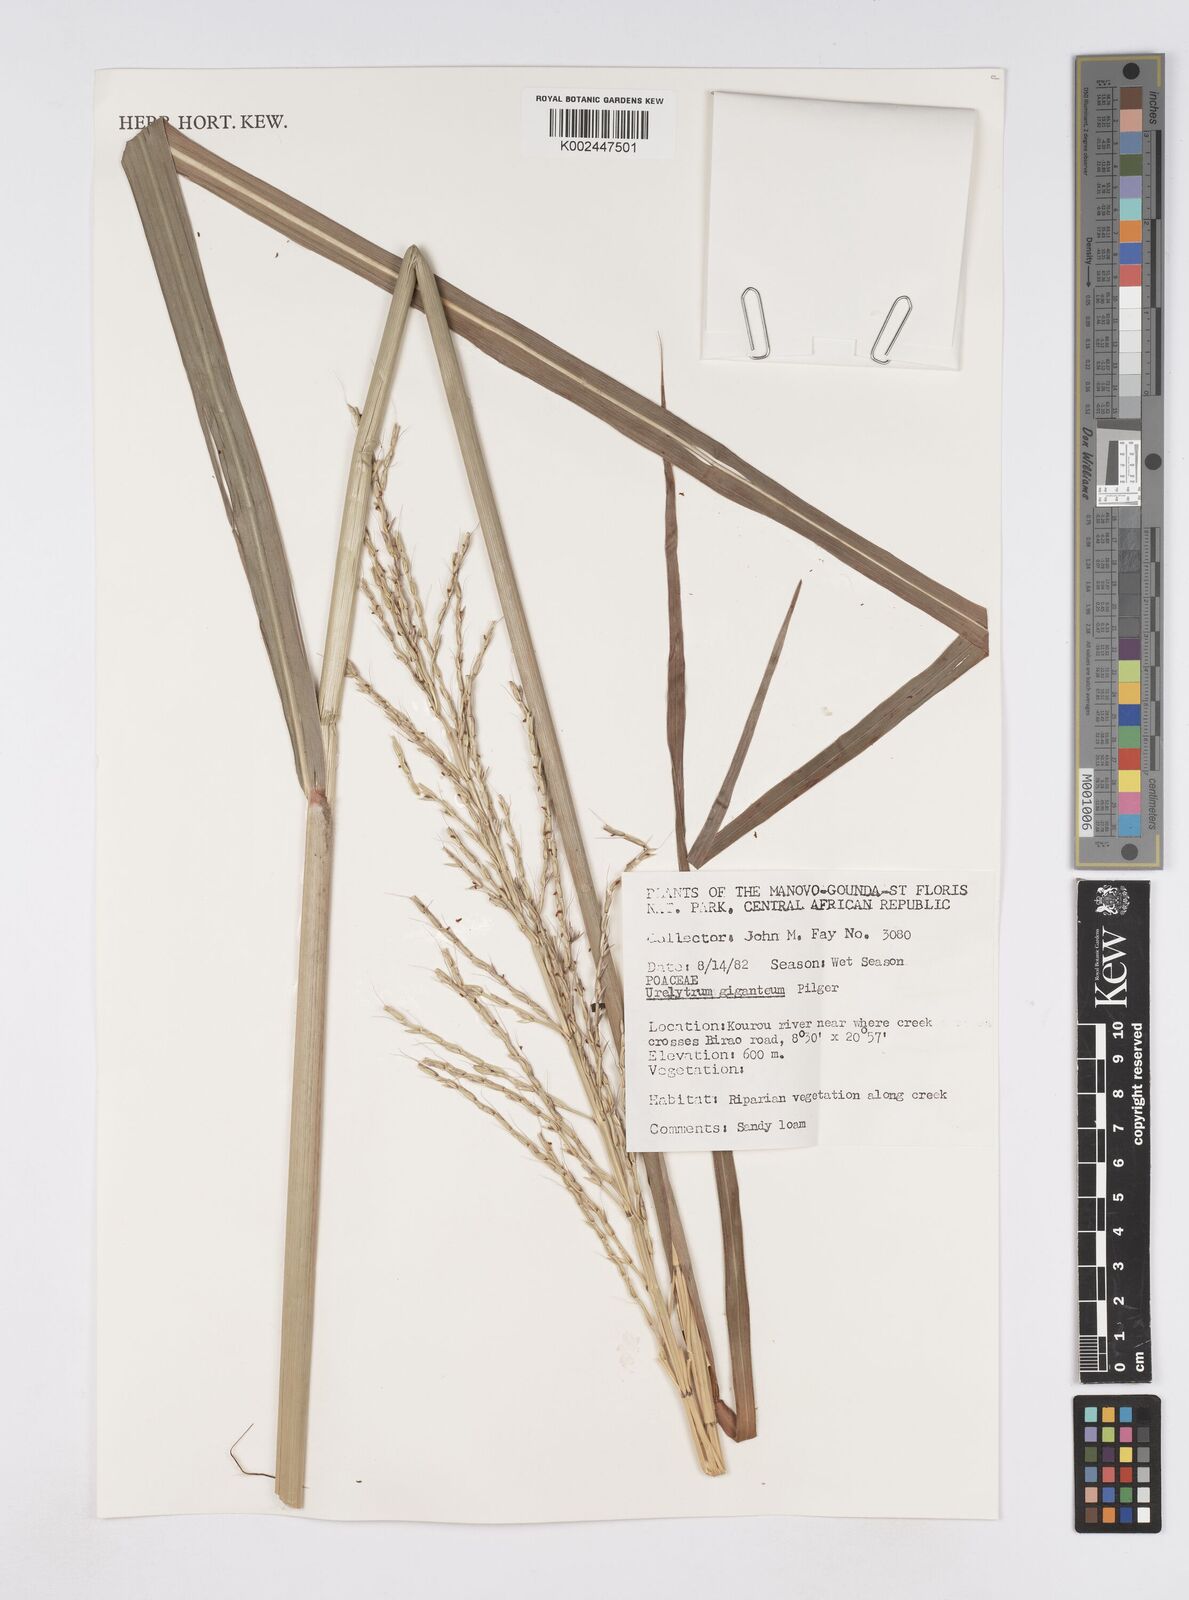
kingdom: Plantae
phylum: Tracheophyta
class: Liliopsida
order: Poales
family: Poaceae
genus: Urelytrum
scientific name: Urelytrum giganteum
